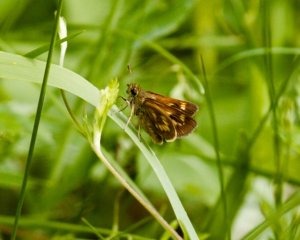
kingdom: Animalia
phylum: Arthropoda
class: Insecta
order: Lepidoptera
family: Hesperiidae
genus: Polites
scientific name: Polites
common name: Long Dash Skipper
